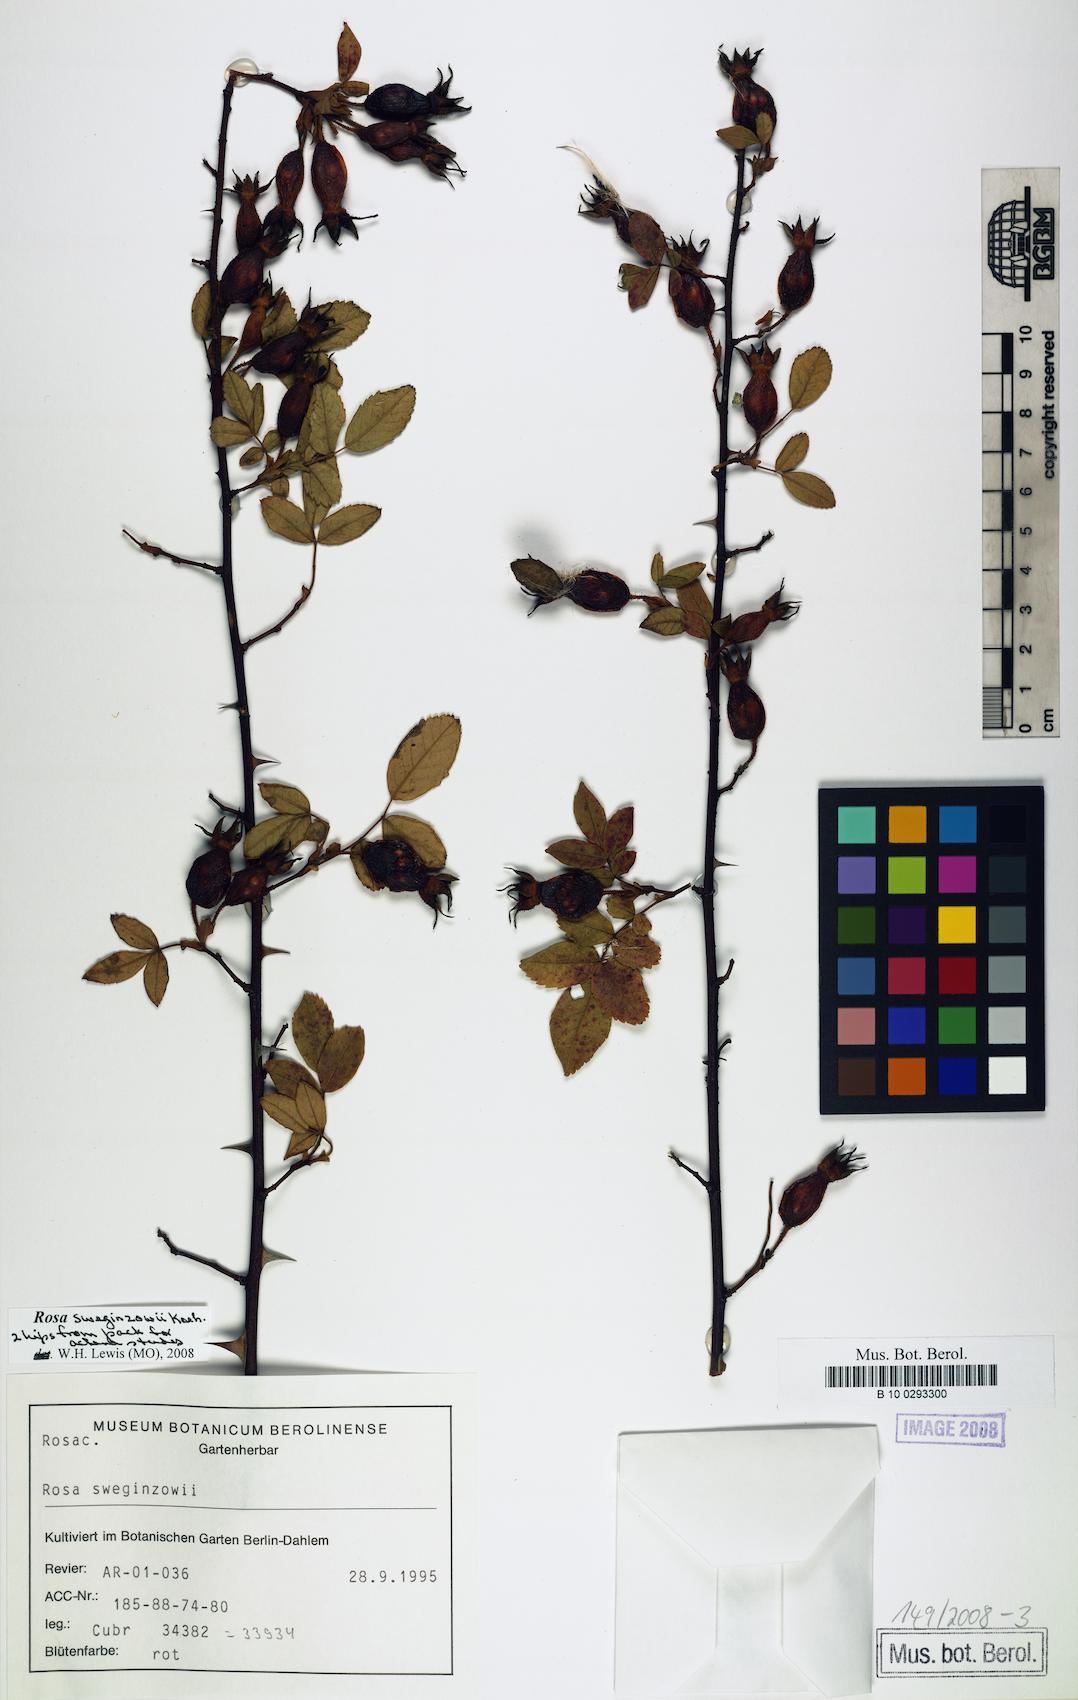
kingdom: Plantae
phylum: Tracheophyta
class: Magnoliopsida
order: Rosales
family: Rosaceae
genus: Rosa
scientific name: Rosa sweginzowii
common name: Sweginzow's rose
